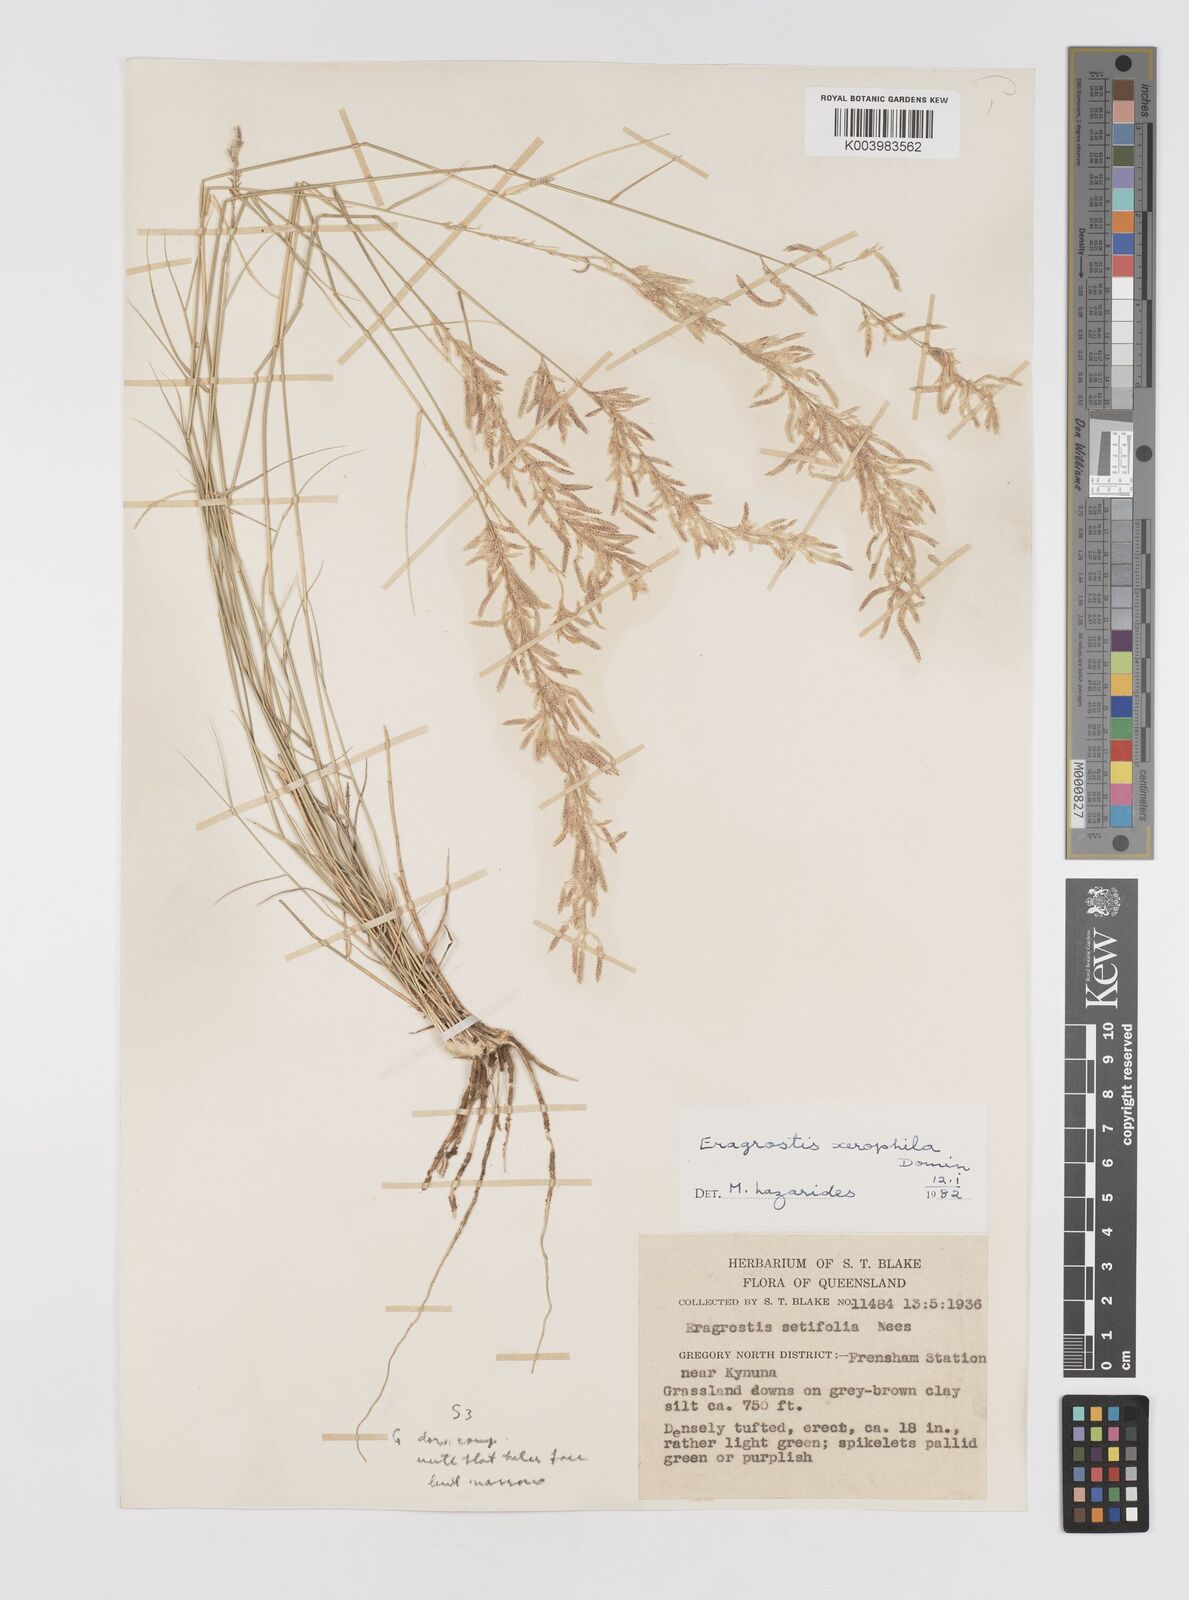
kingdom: Plantae
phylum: Tracheophyta
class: Liliopsida
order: Poales
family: Poaceae
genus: Eragrostis
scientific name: Eragrostis xerophila
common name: Wire wandarrie grass
